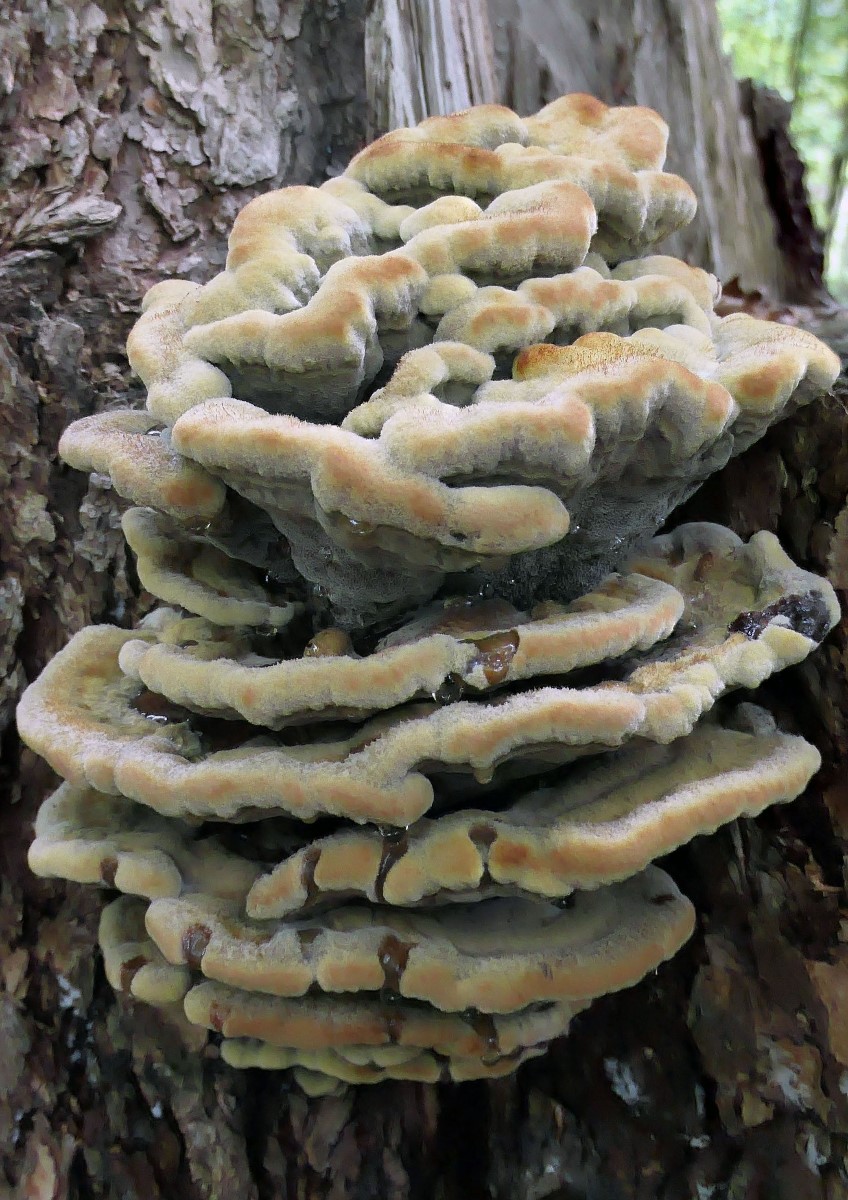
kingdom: Fungi
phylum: Basidiomycota
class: Agaricomycetes
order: Polyporales
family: Laetiporaceae
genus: Phaeolus
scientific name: Phaeolus schweinitzii
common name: brunporesvamp
